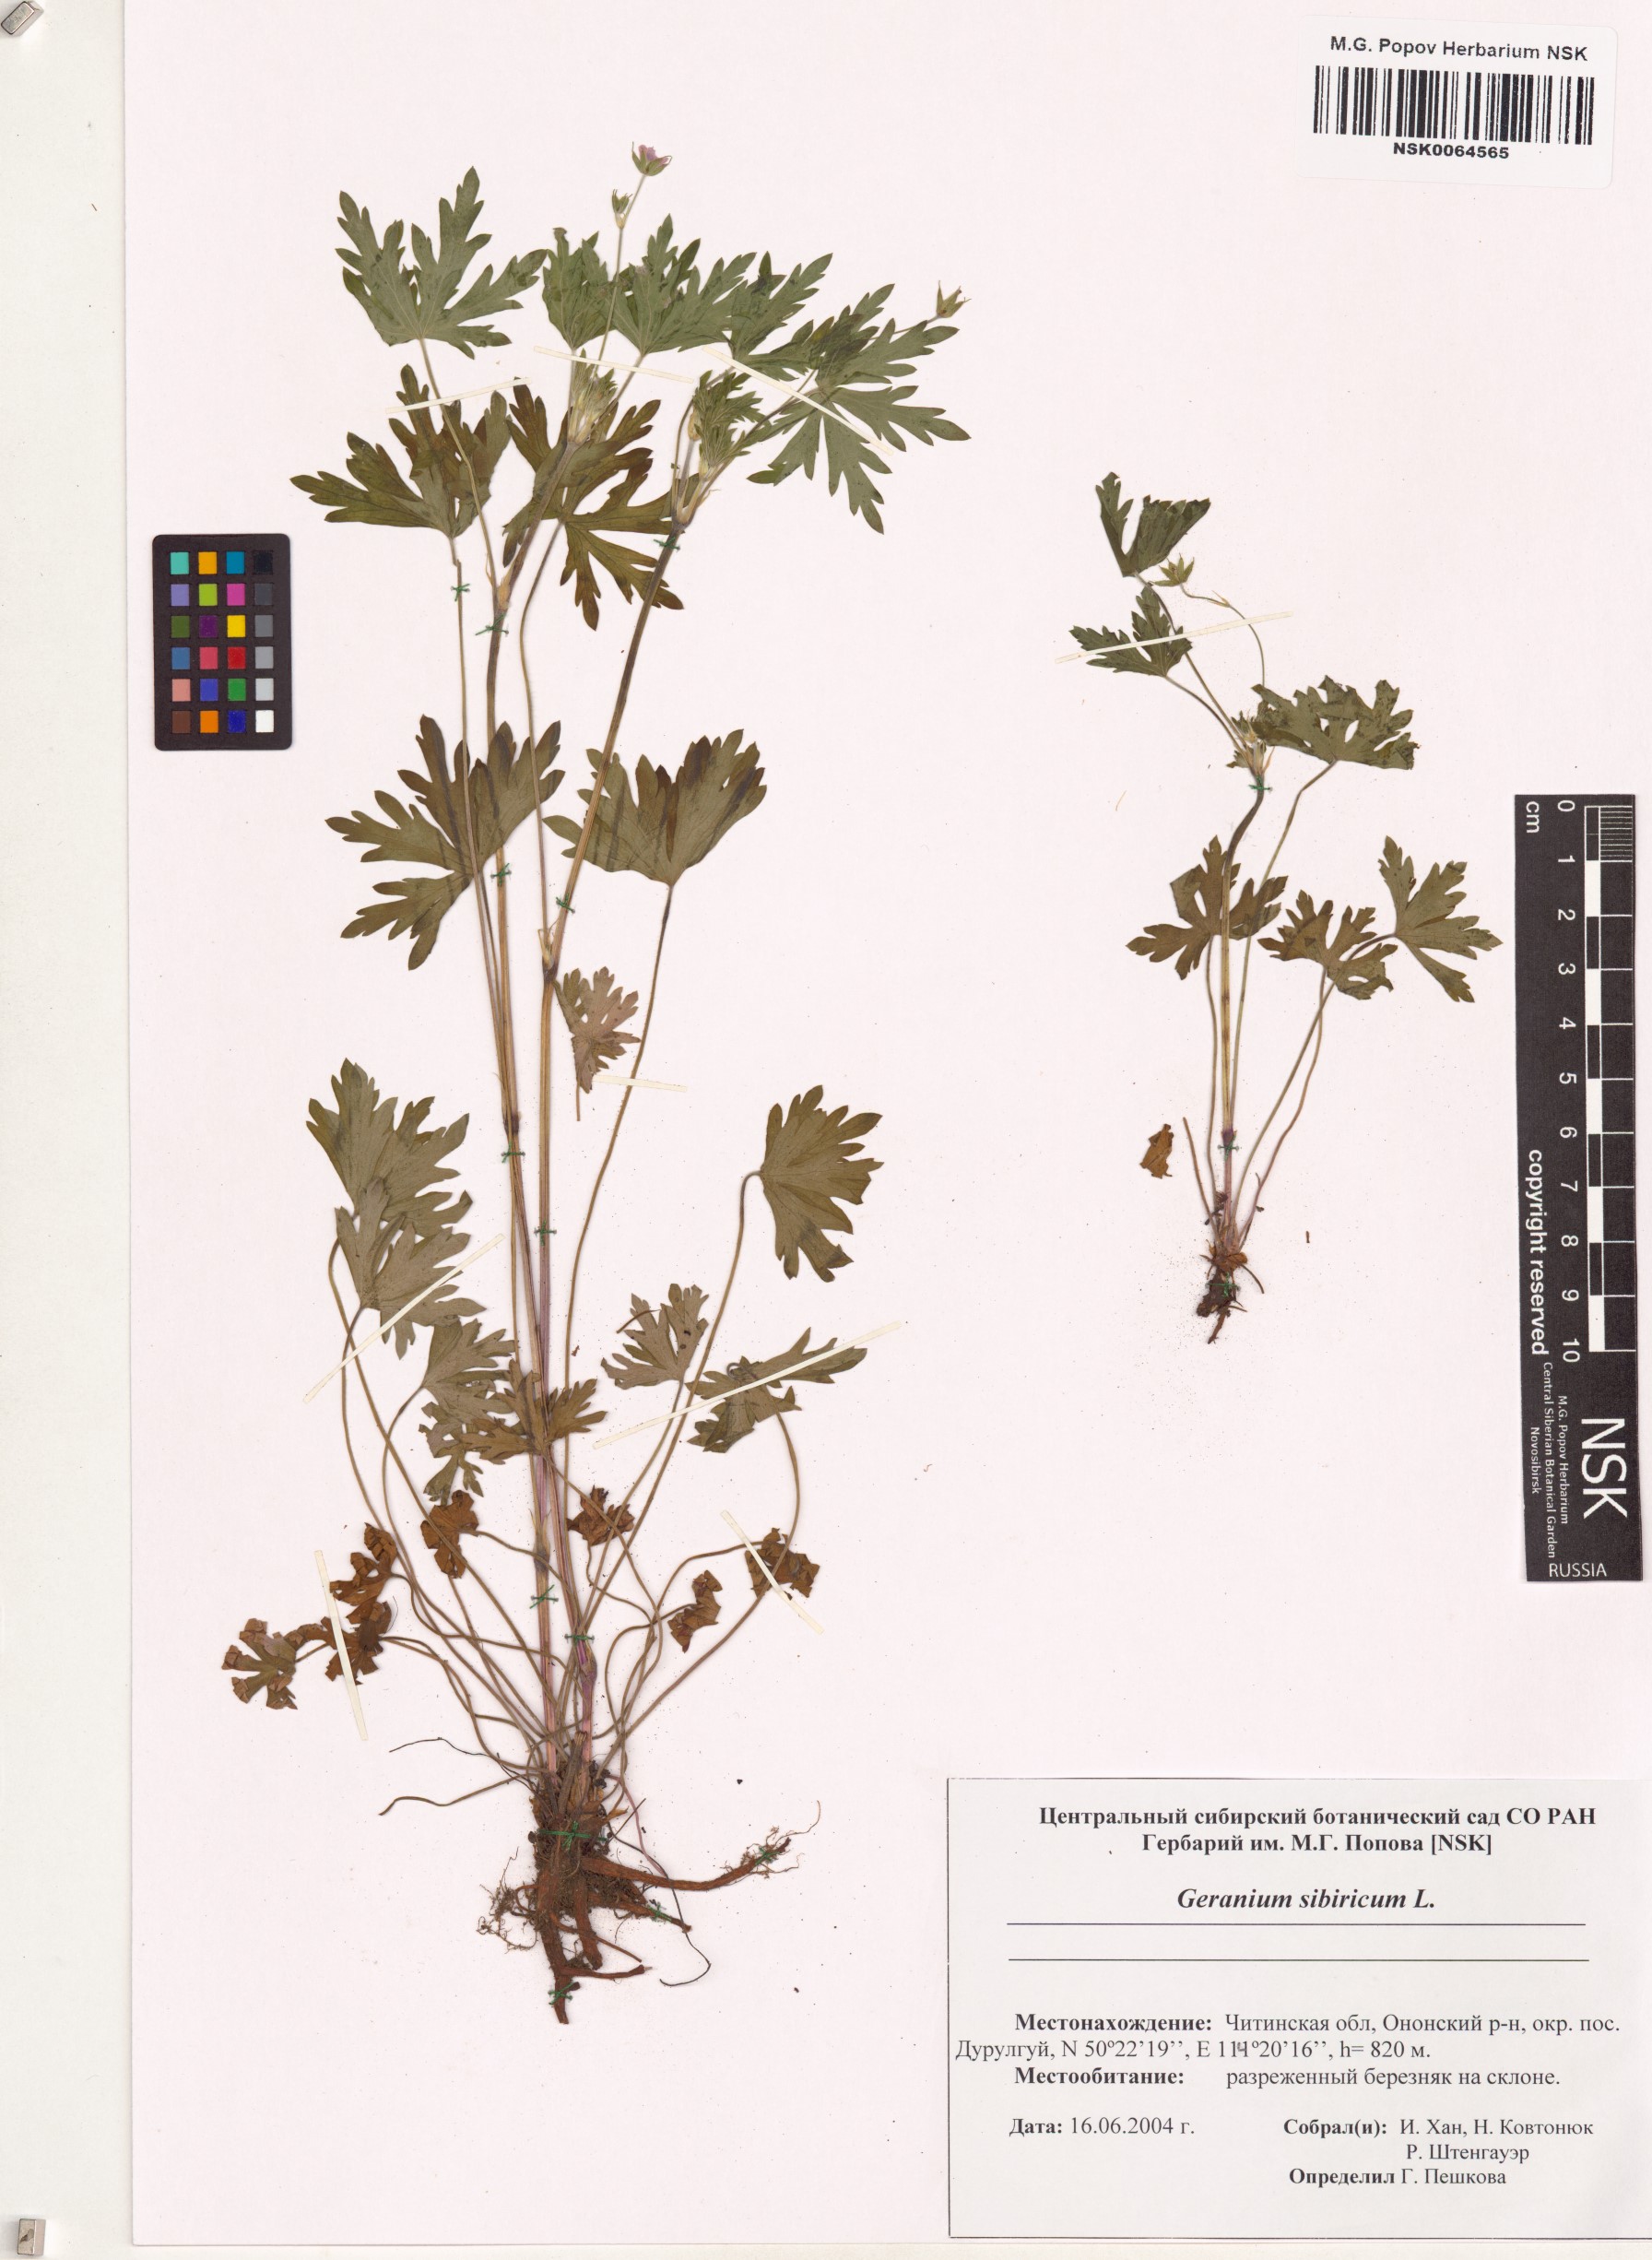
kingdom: Plantae
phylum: Tracheophyta
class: Magnoliopsida
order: Geraniales
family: Geraniaceae
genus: Geranium
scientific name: Geranium sibiricum
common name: Siberian crane's-bill
